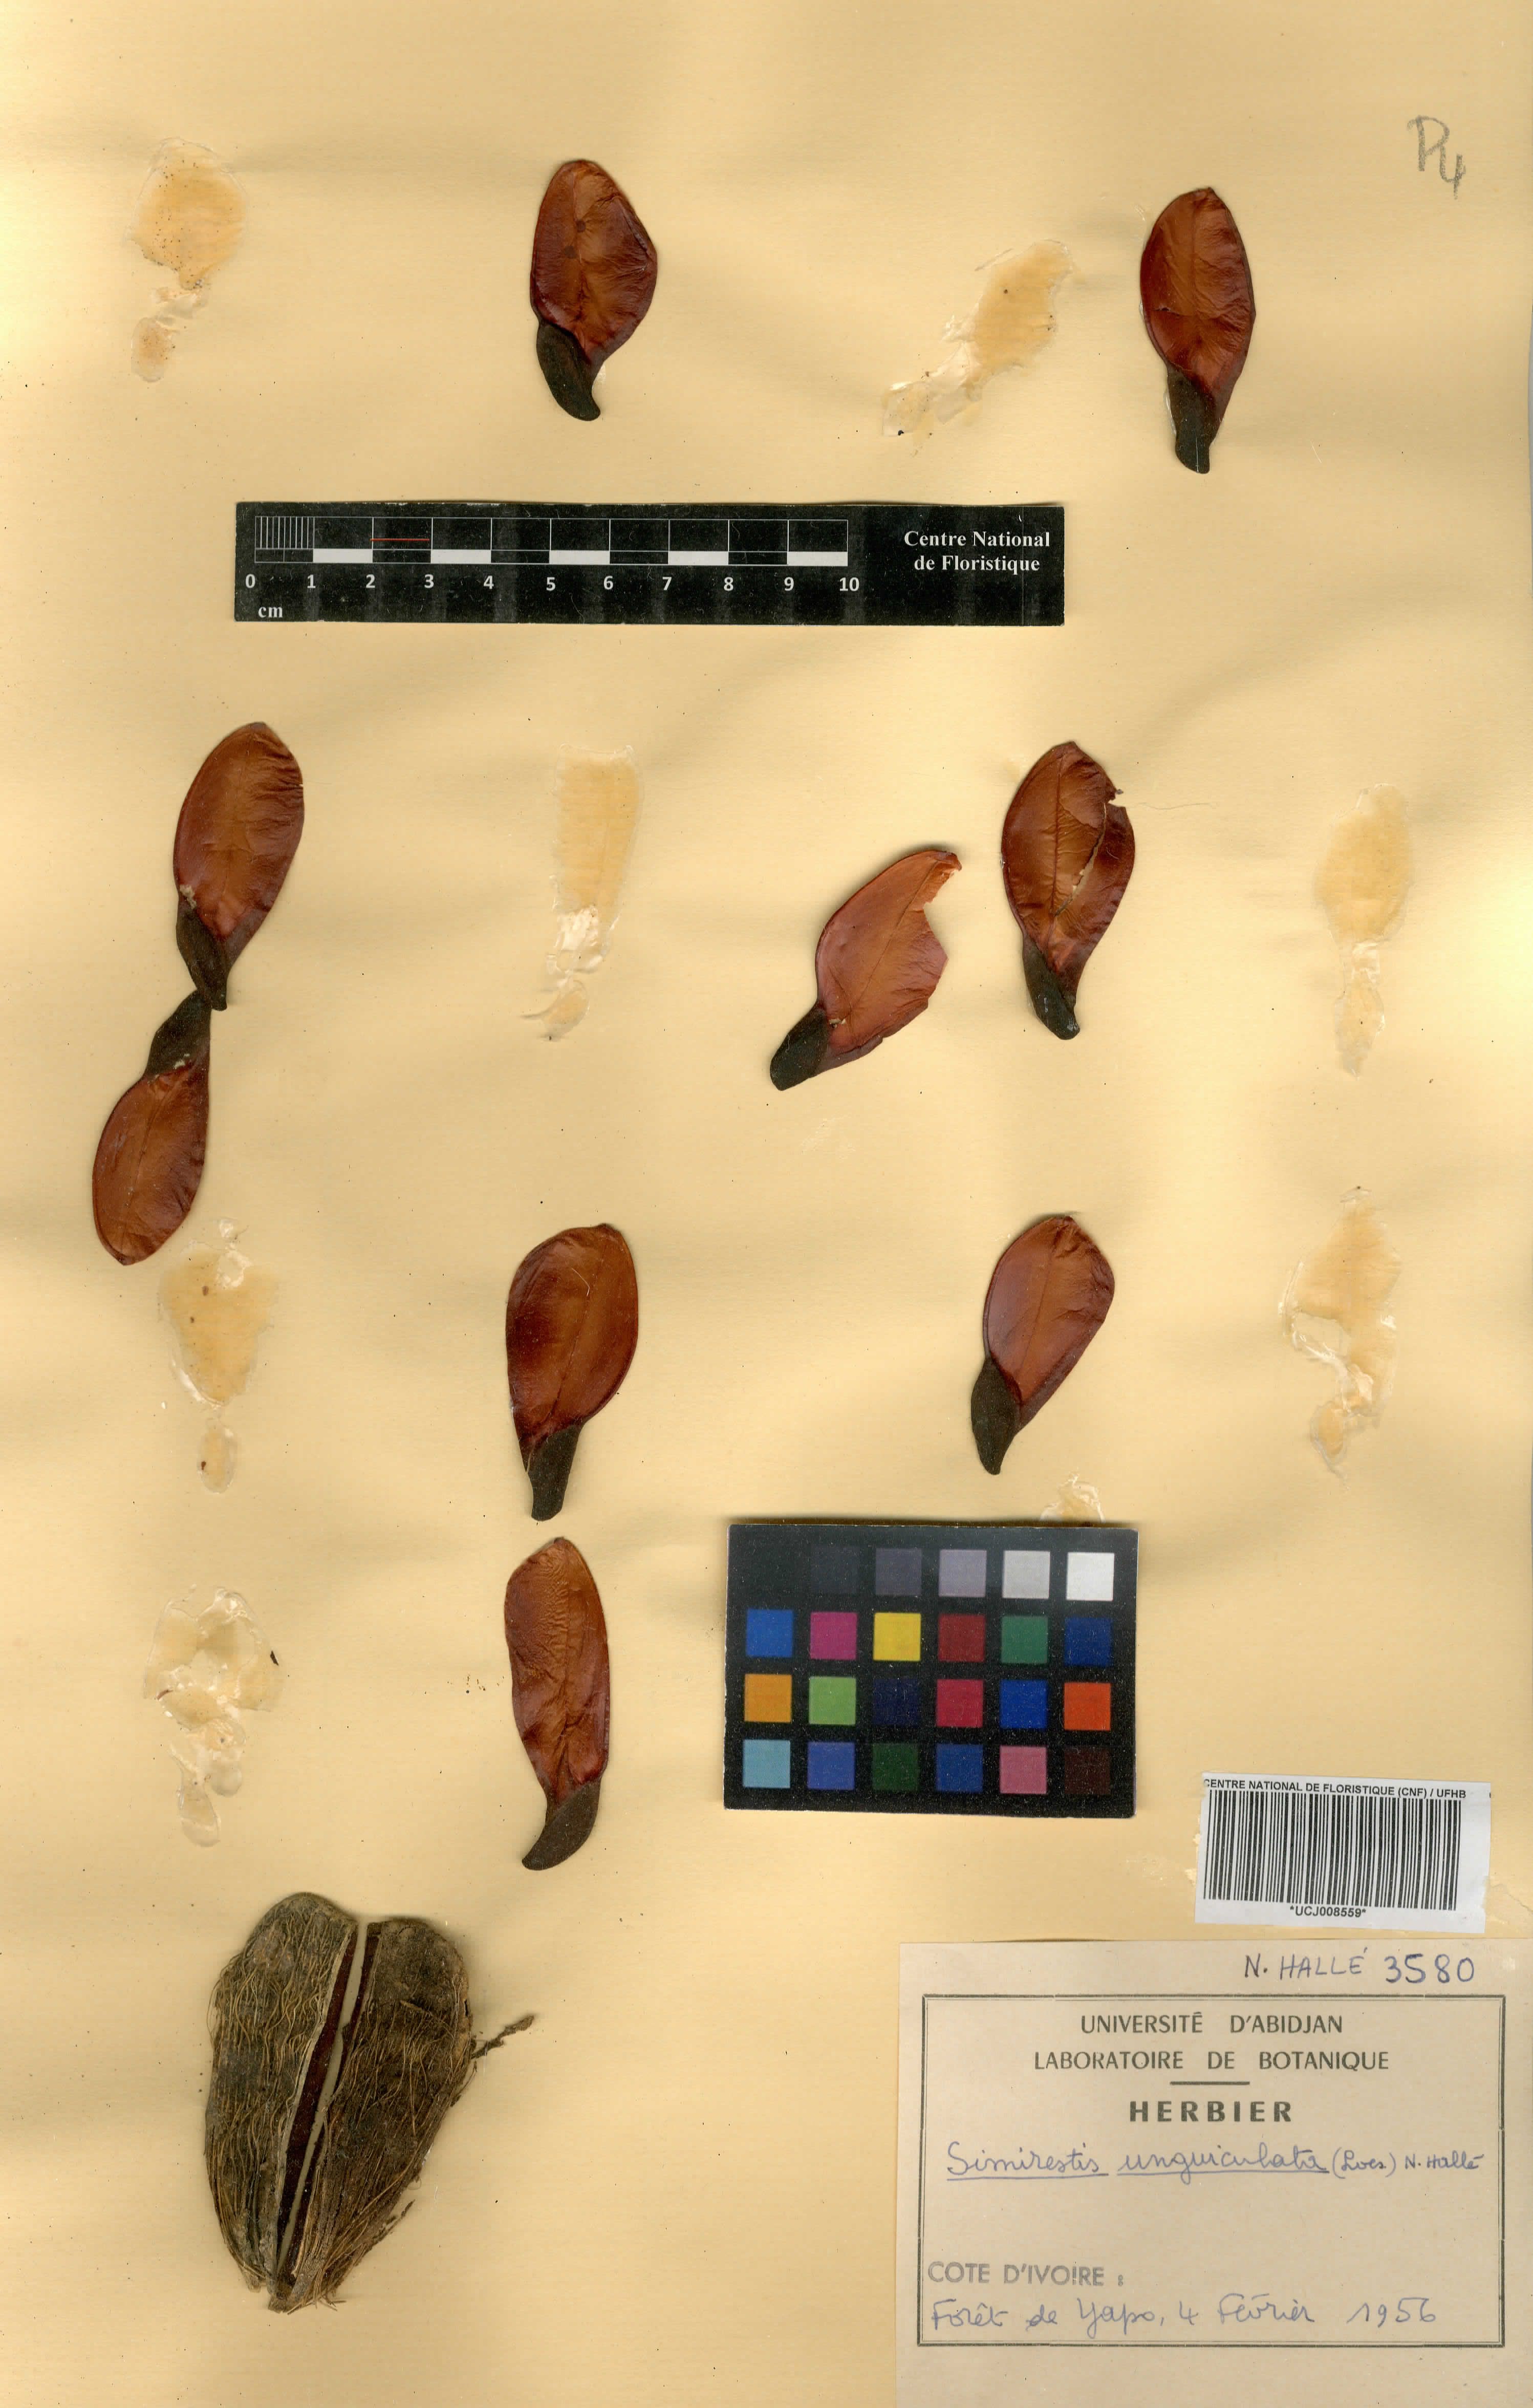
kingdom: Plantae
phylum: Tracheophyta
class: Magnoliopsida
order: Celastrales
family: Celastraceae
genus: Pristimera
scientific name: Pristimera unguiculata
